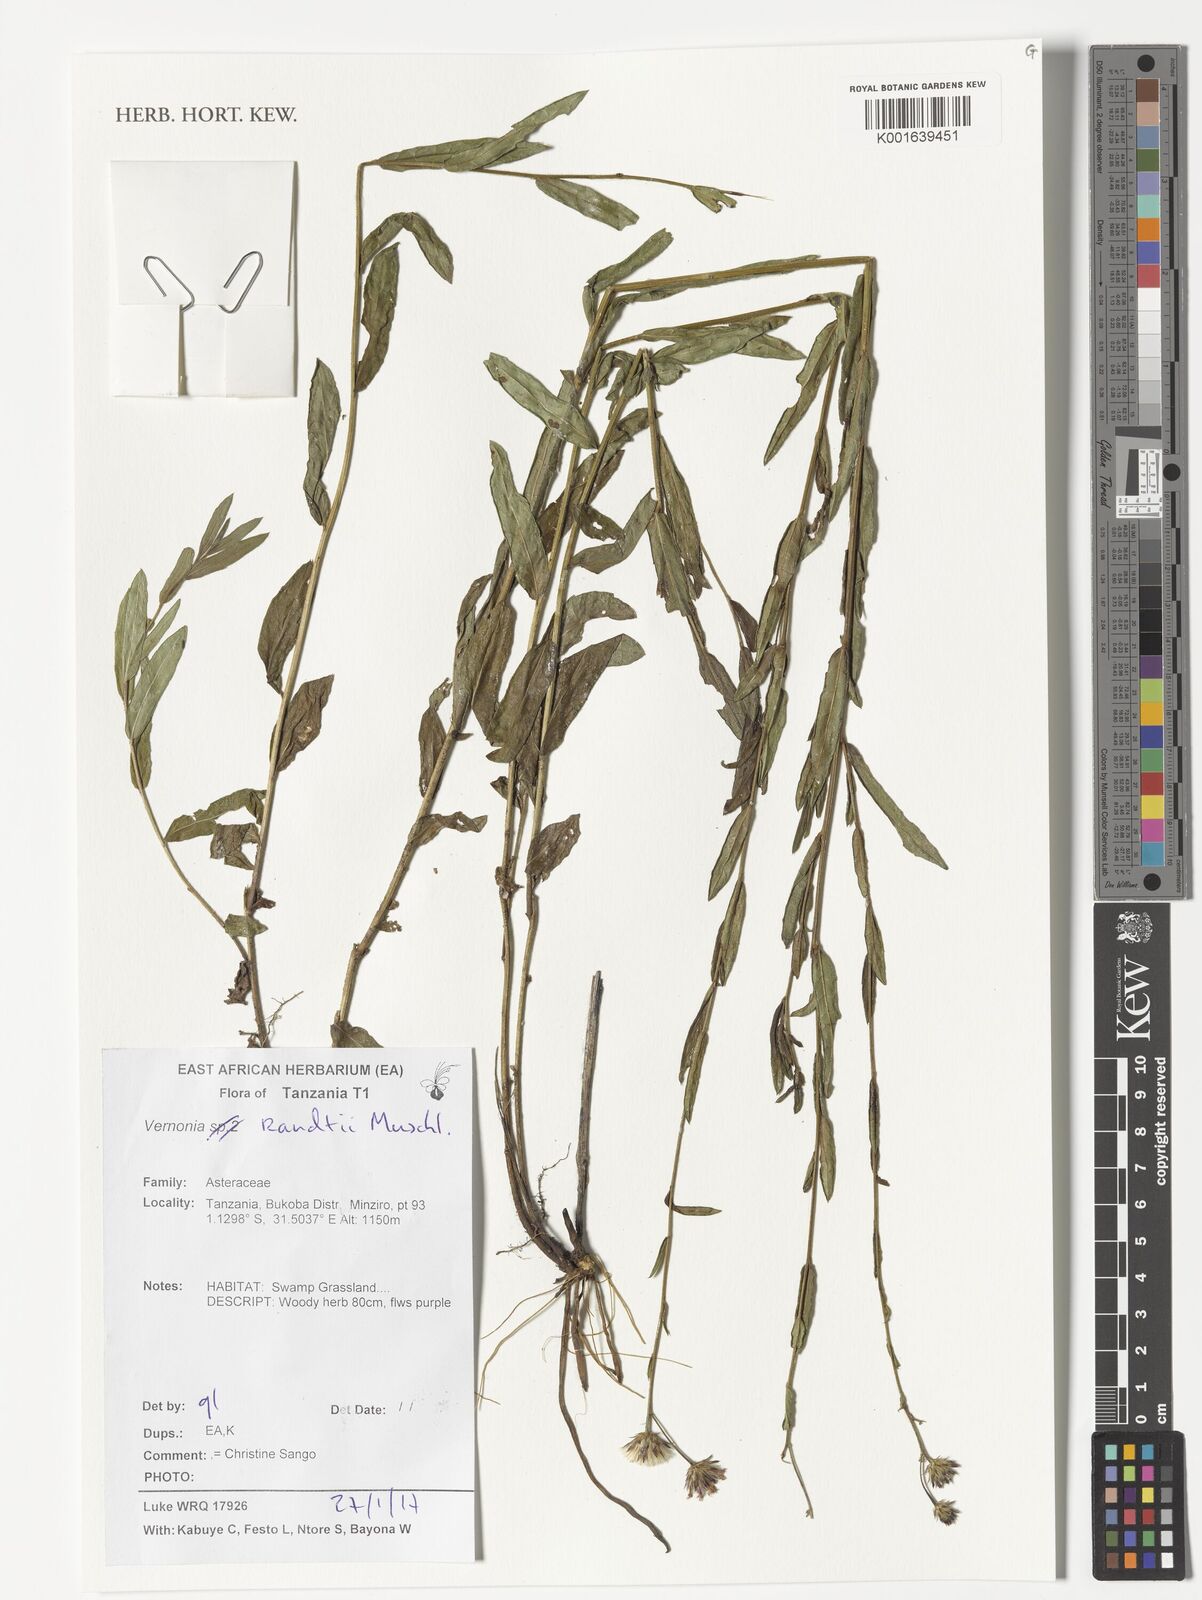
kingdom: Plantae
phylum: Tracheophyta
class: Magnoliopsida
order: Asterales
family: Asteraceae
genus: Vernonia
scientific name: Vernonia
